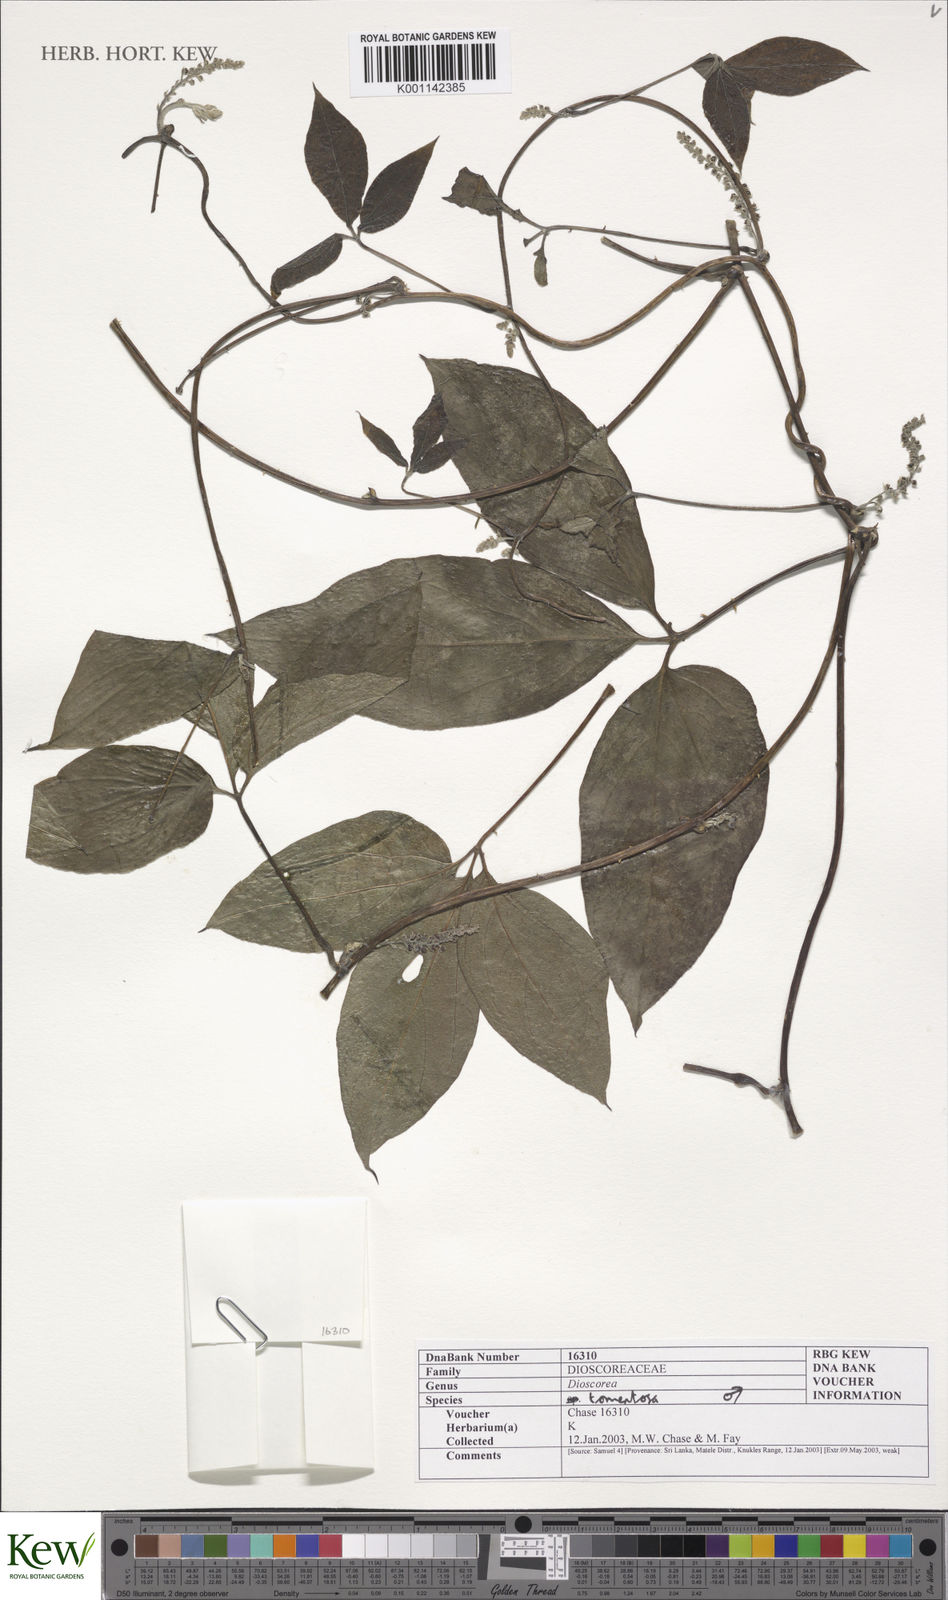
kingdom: Plantae
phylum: Tracheophyta
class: Liliopsida
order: Dioscoreales
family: Dioscoreaceae
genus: Dioscorea
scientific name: Dioscorea
